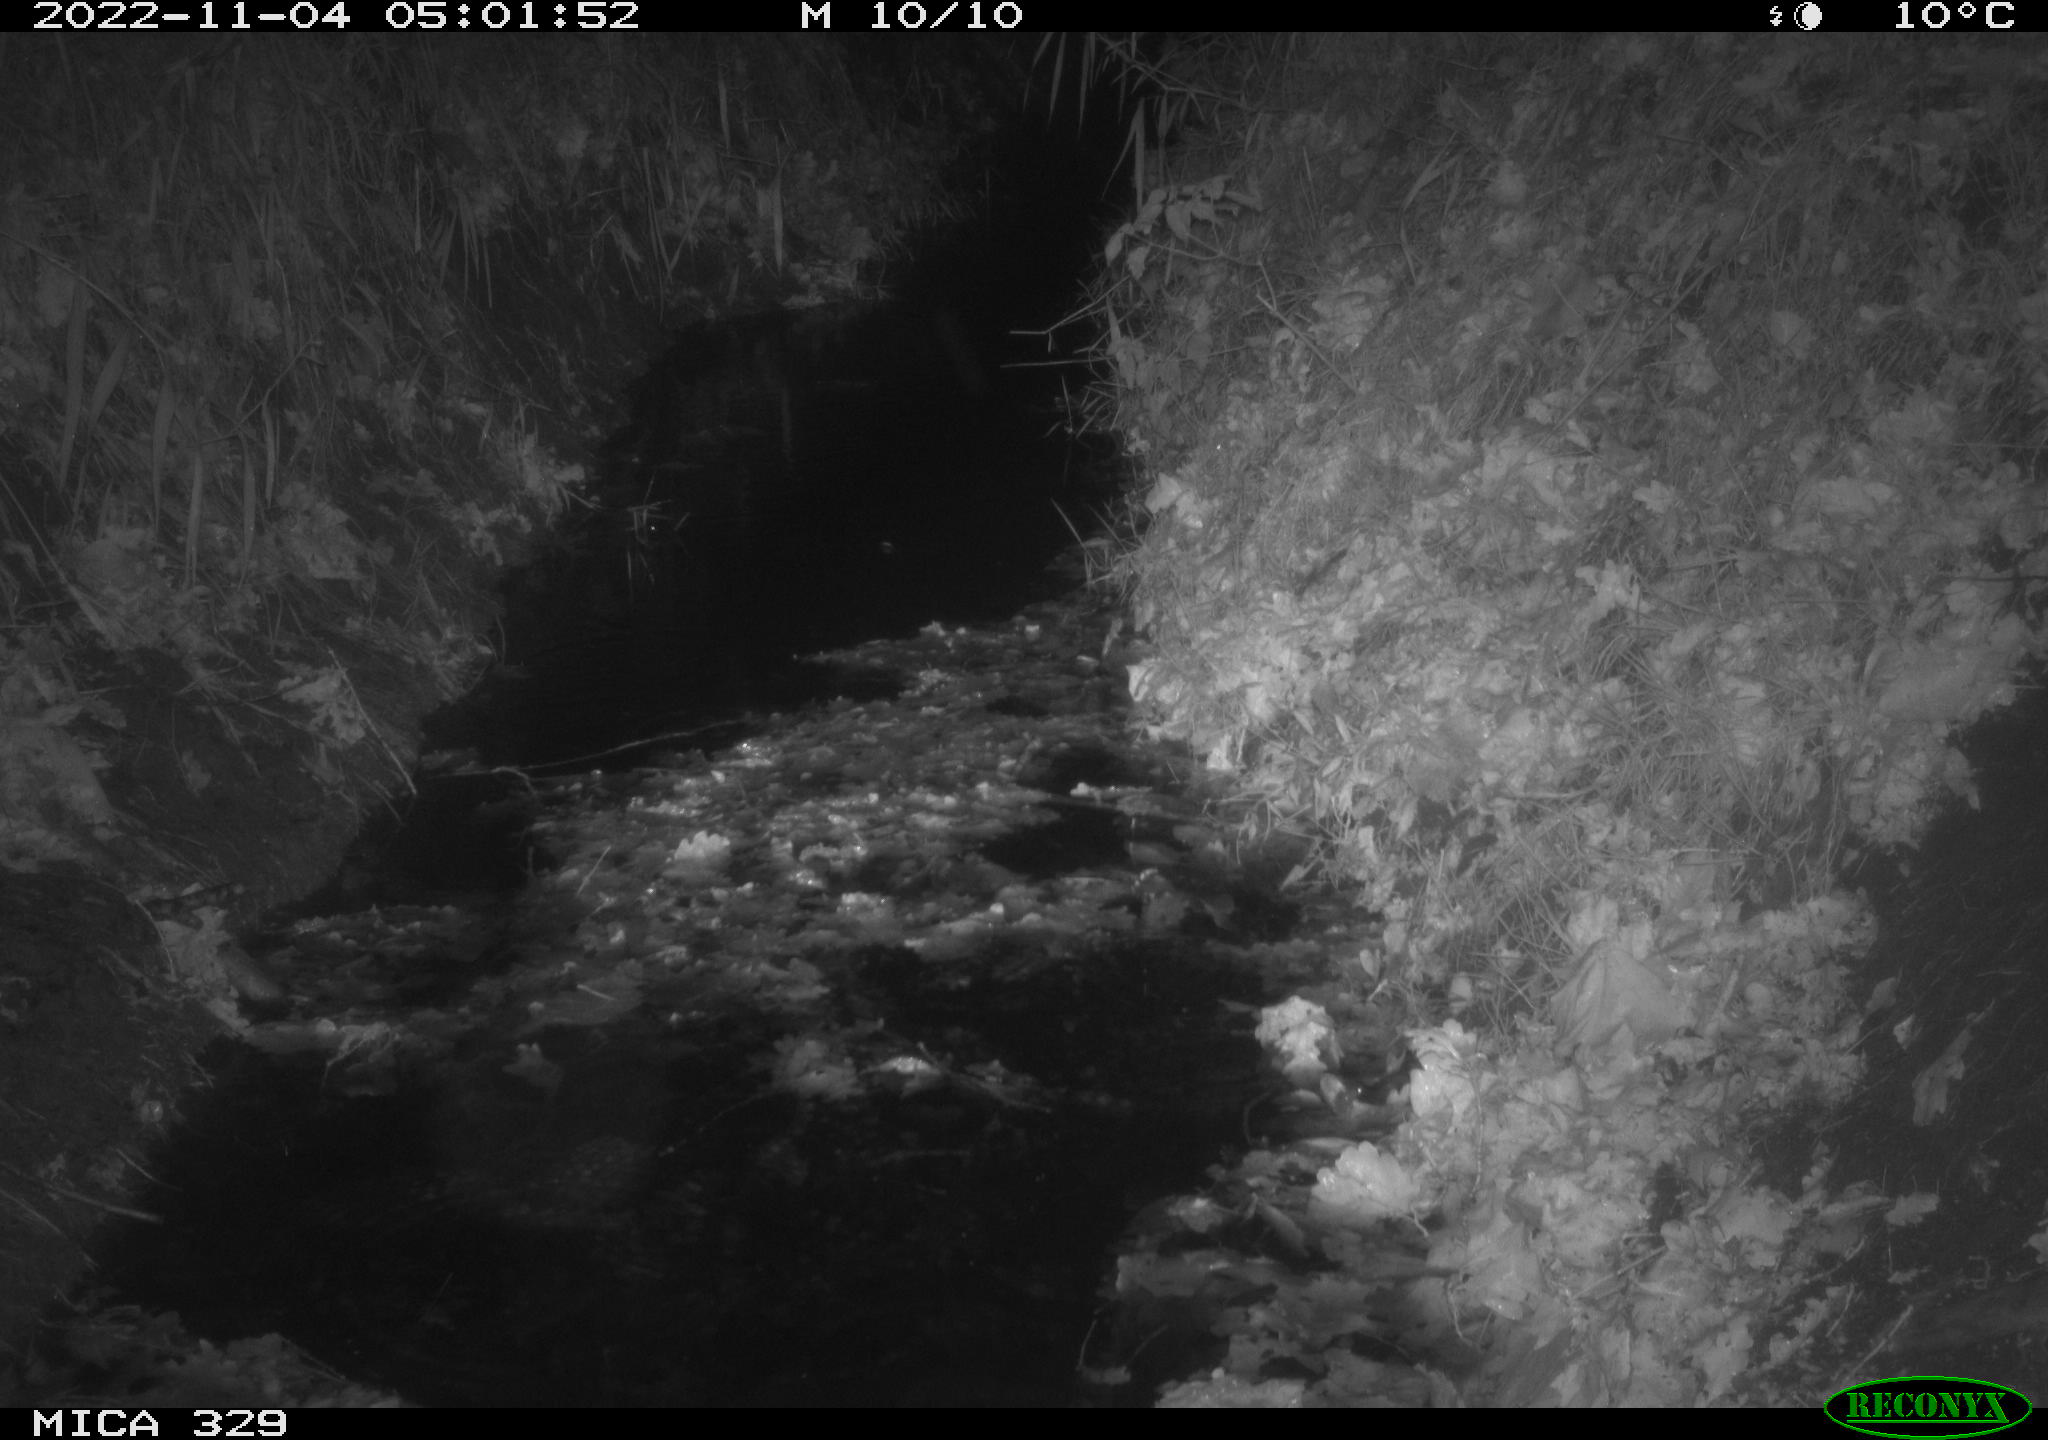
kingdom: Animalia
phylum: Chordata
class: Mammalia
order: Rodentia
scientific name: Rodentia
